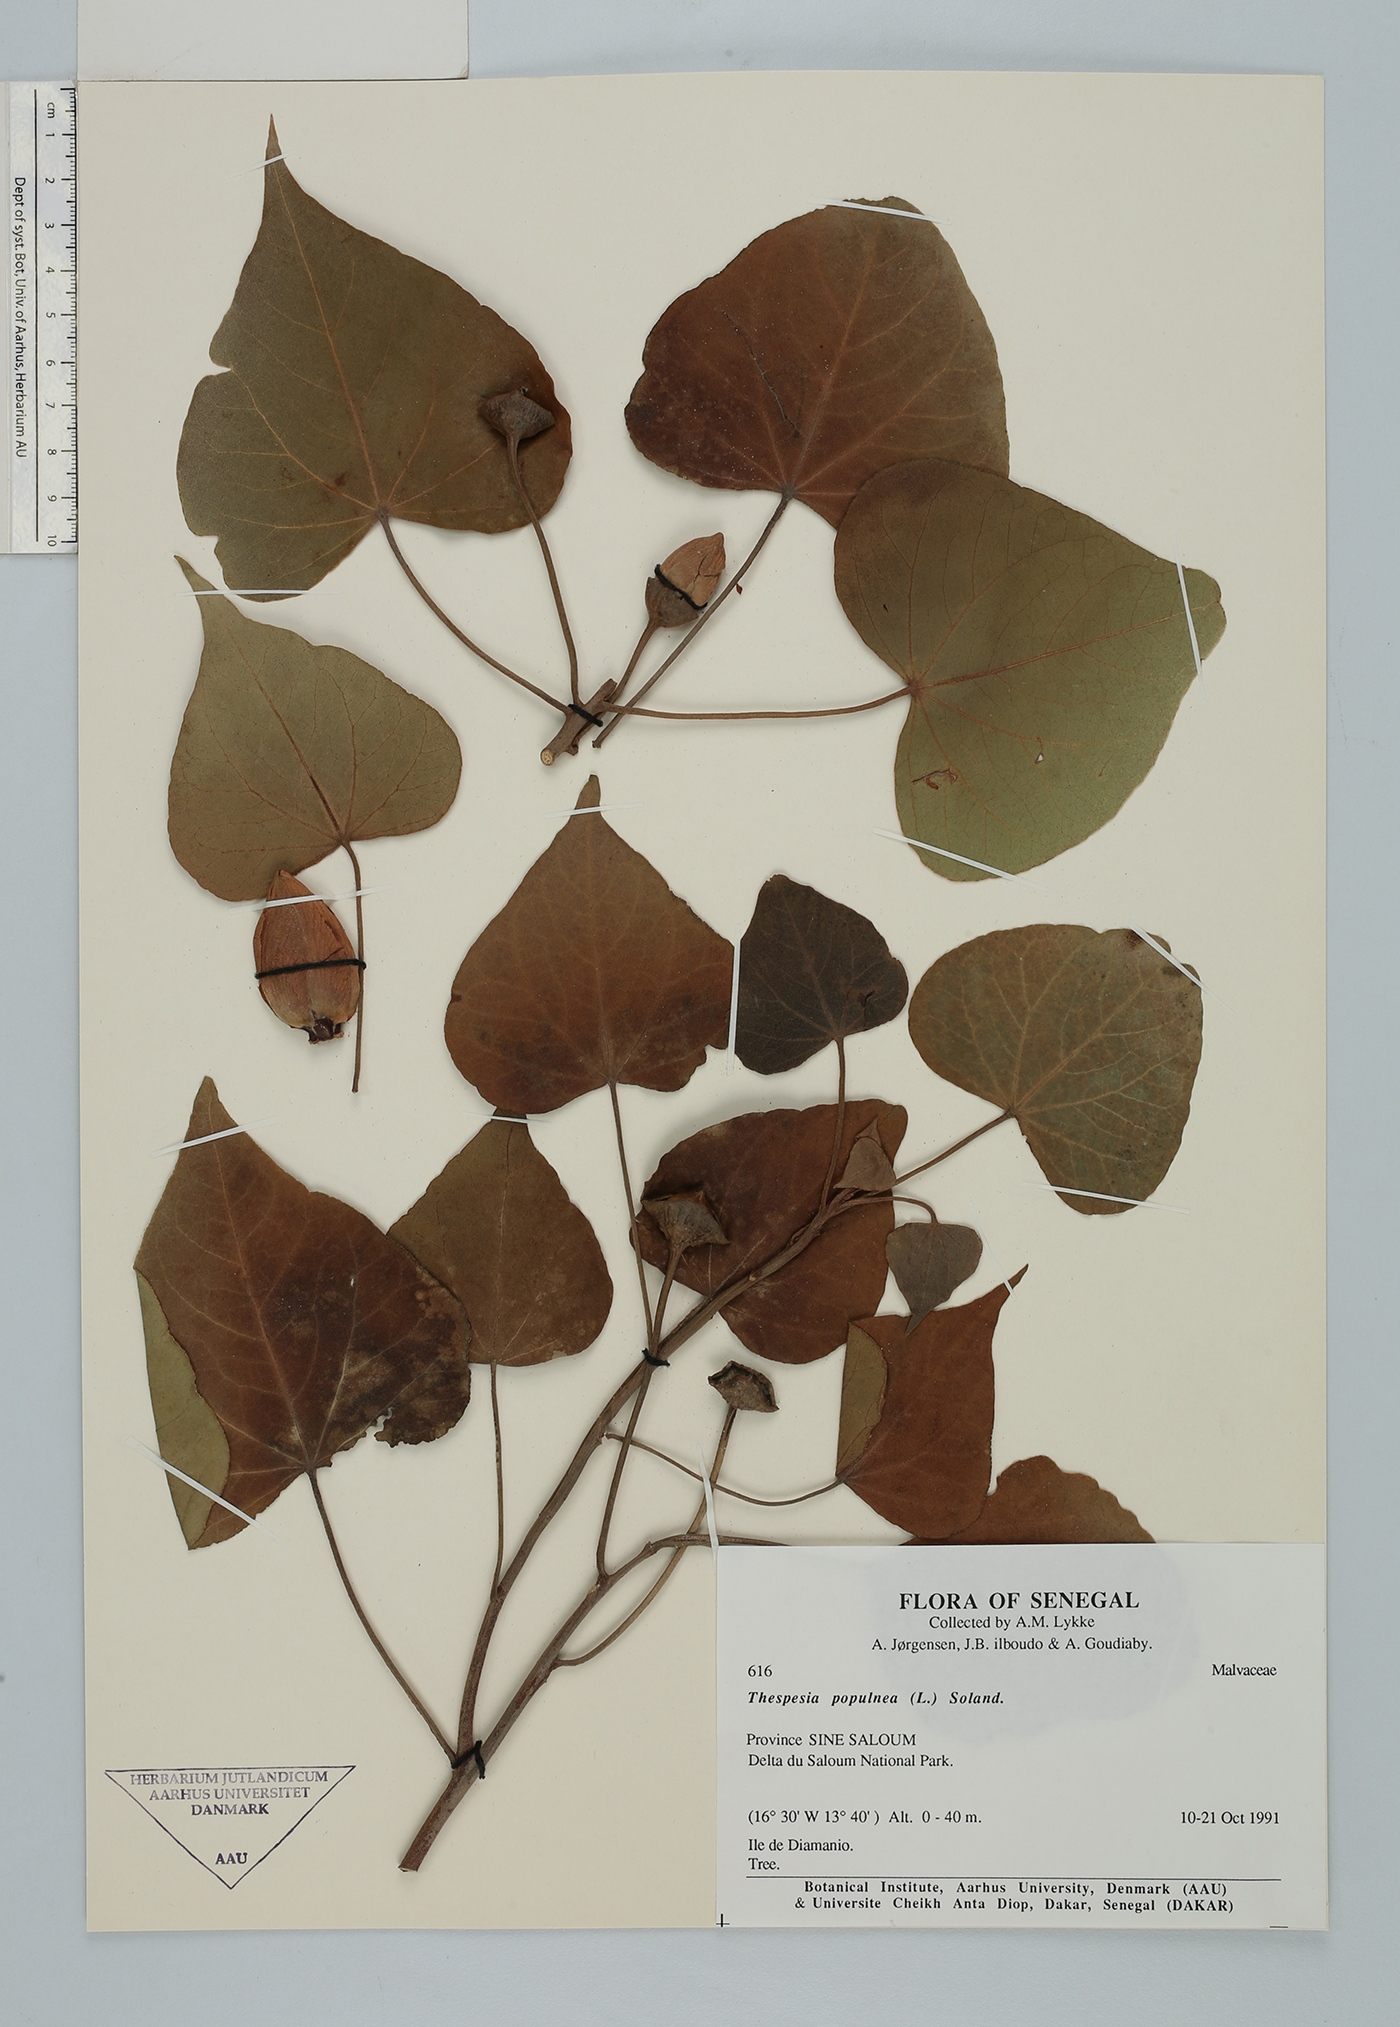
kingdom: Plantae
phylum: Tracheophyta
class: Magnoliopsida
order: Malvales
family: Malvaceae
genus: Thespesia
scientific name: Thespesia populnea
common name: Seaside mahoe
